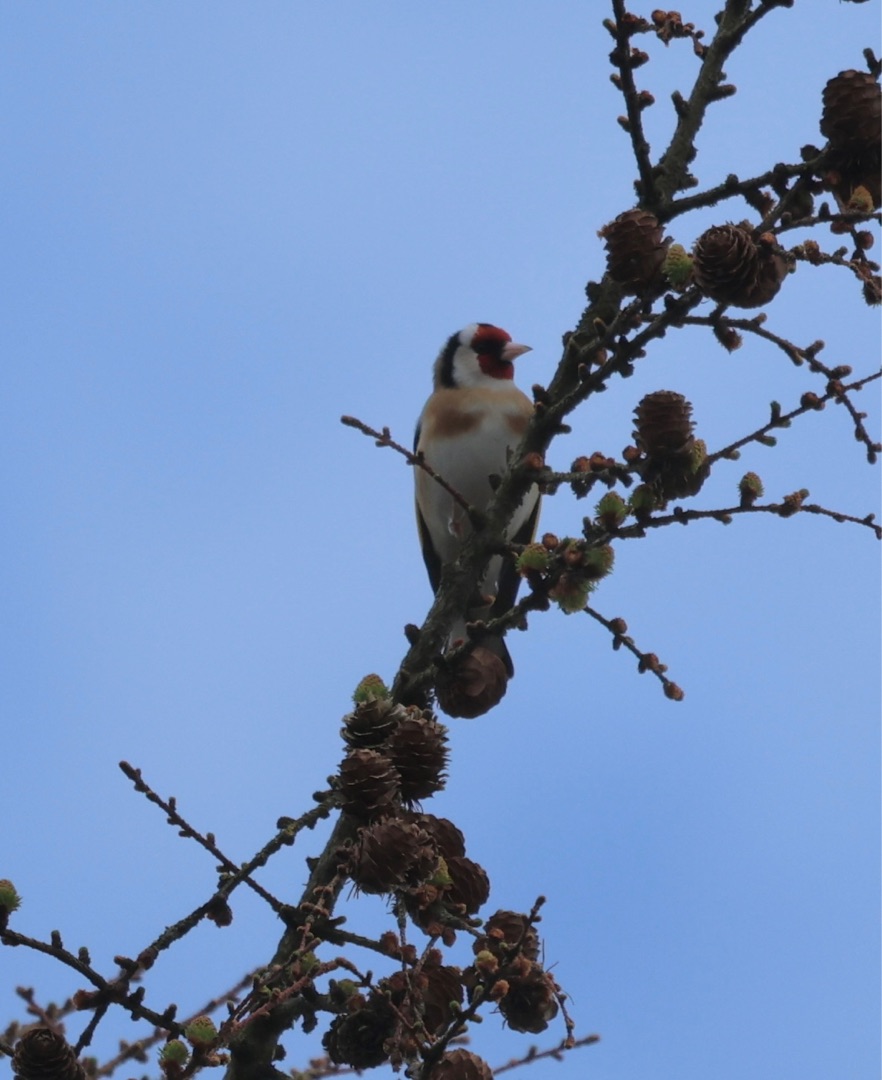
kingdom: Animalia
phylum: Chordata
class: Aves
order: Passeriformes
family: Fringillidae
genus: Carduelis
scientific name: Carduelis carduelis
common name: Stillits
